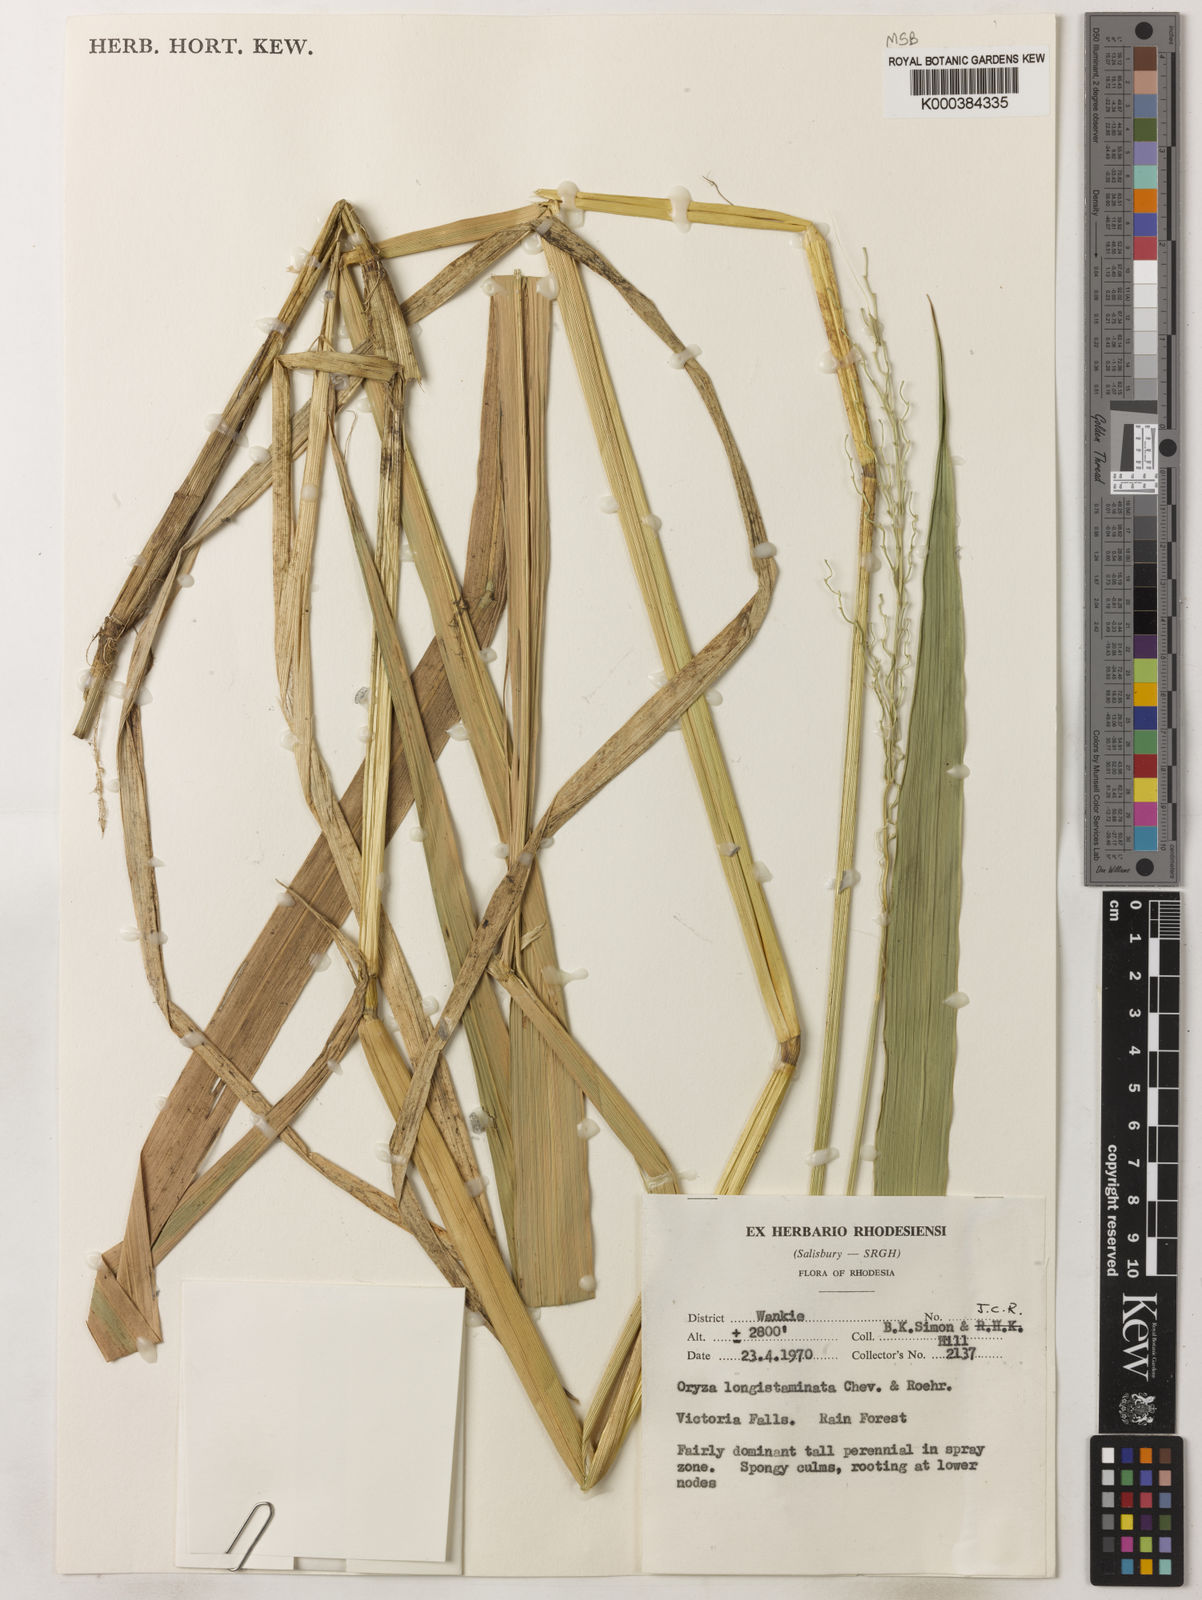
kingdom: Plantae
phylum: Tracheophyta
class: Liliopsida
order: Poales
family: Poaceae
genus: Oryza
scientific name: Oryza longistaminata
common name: Red rice
